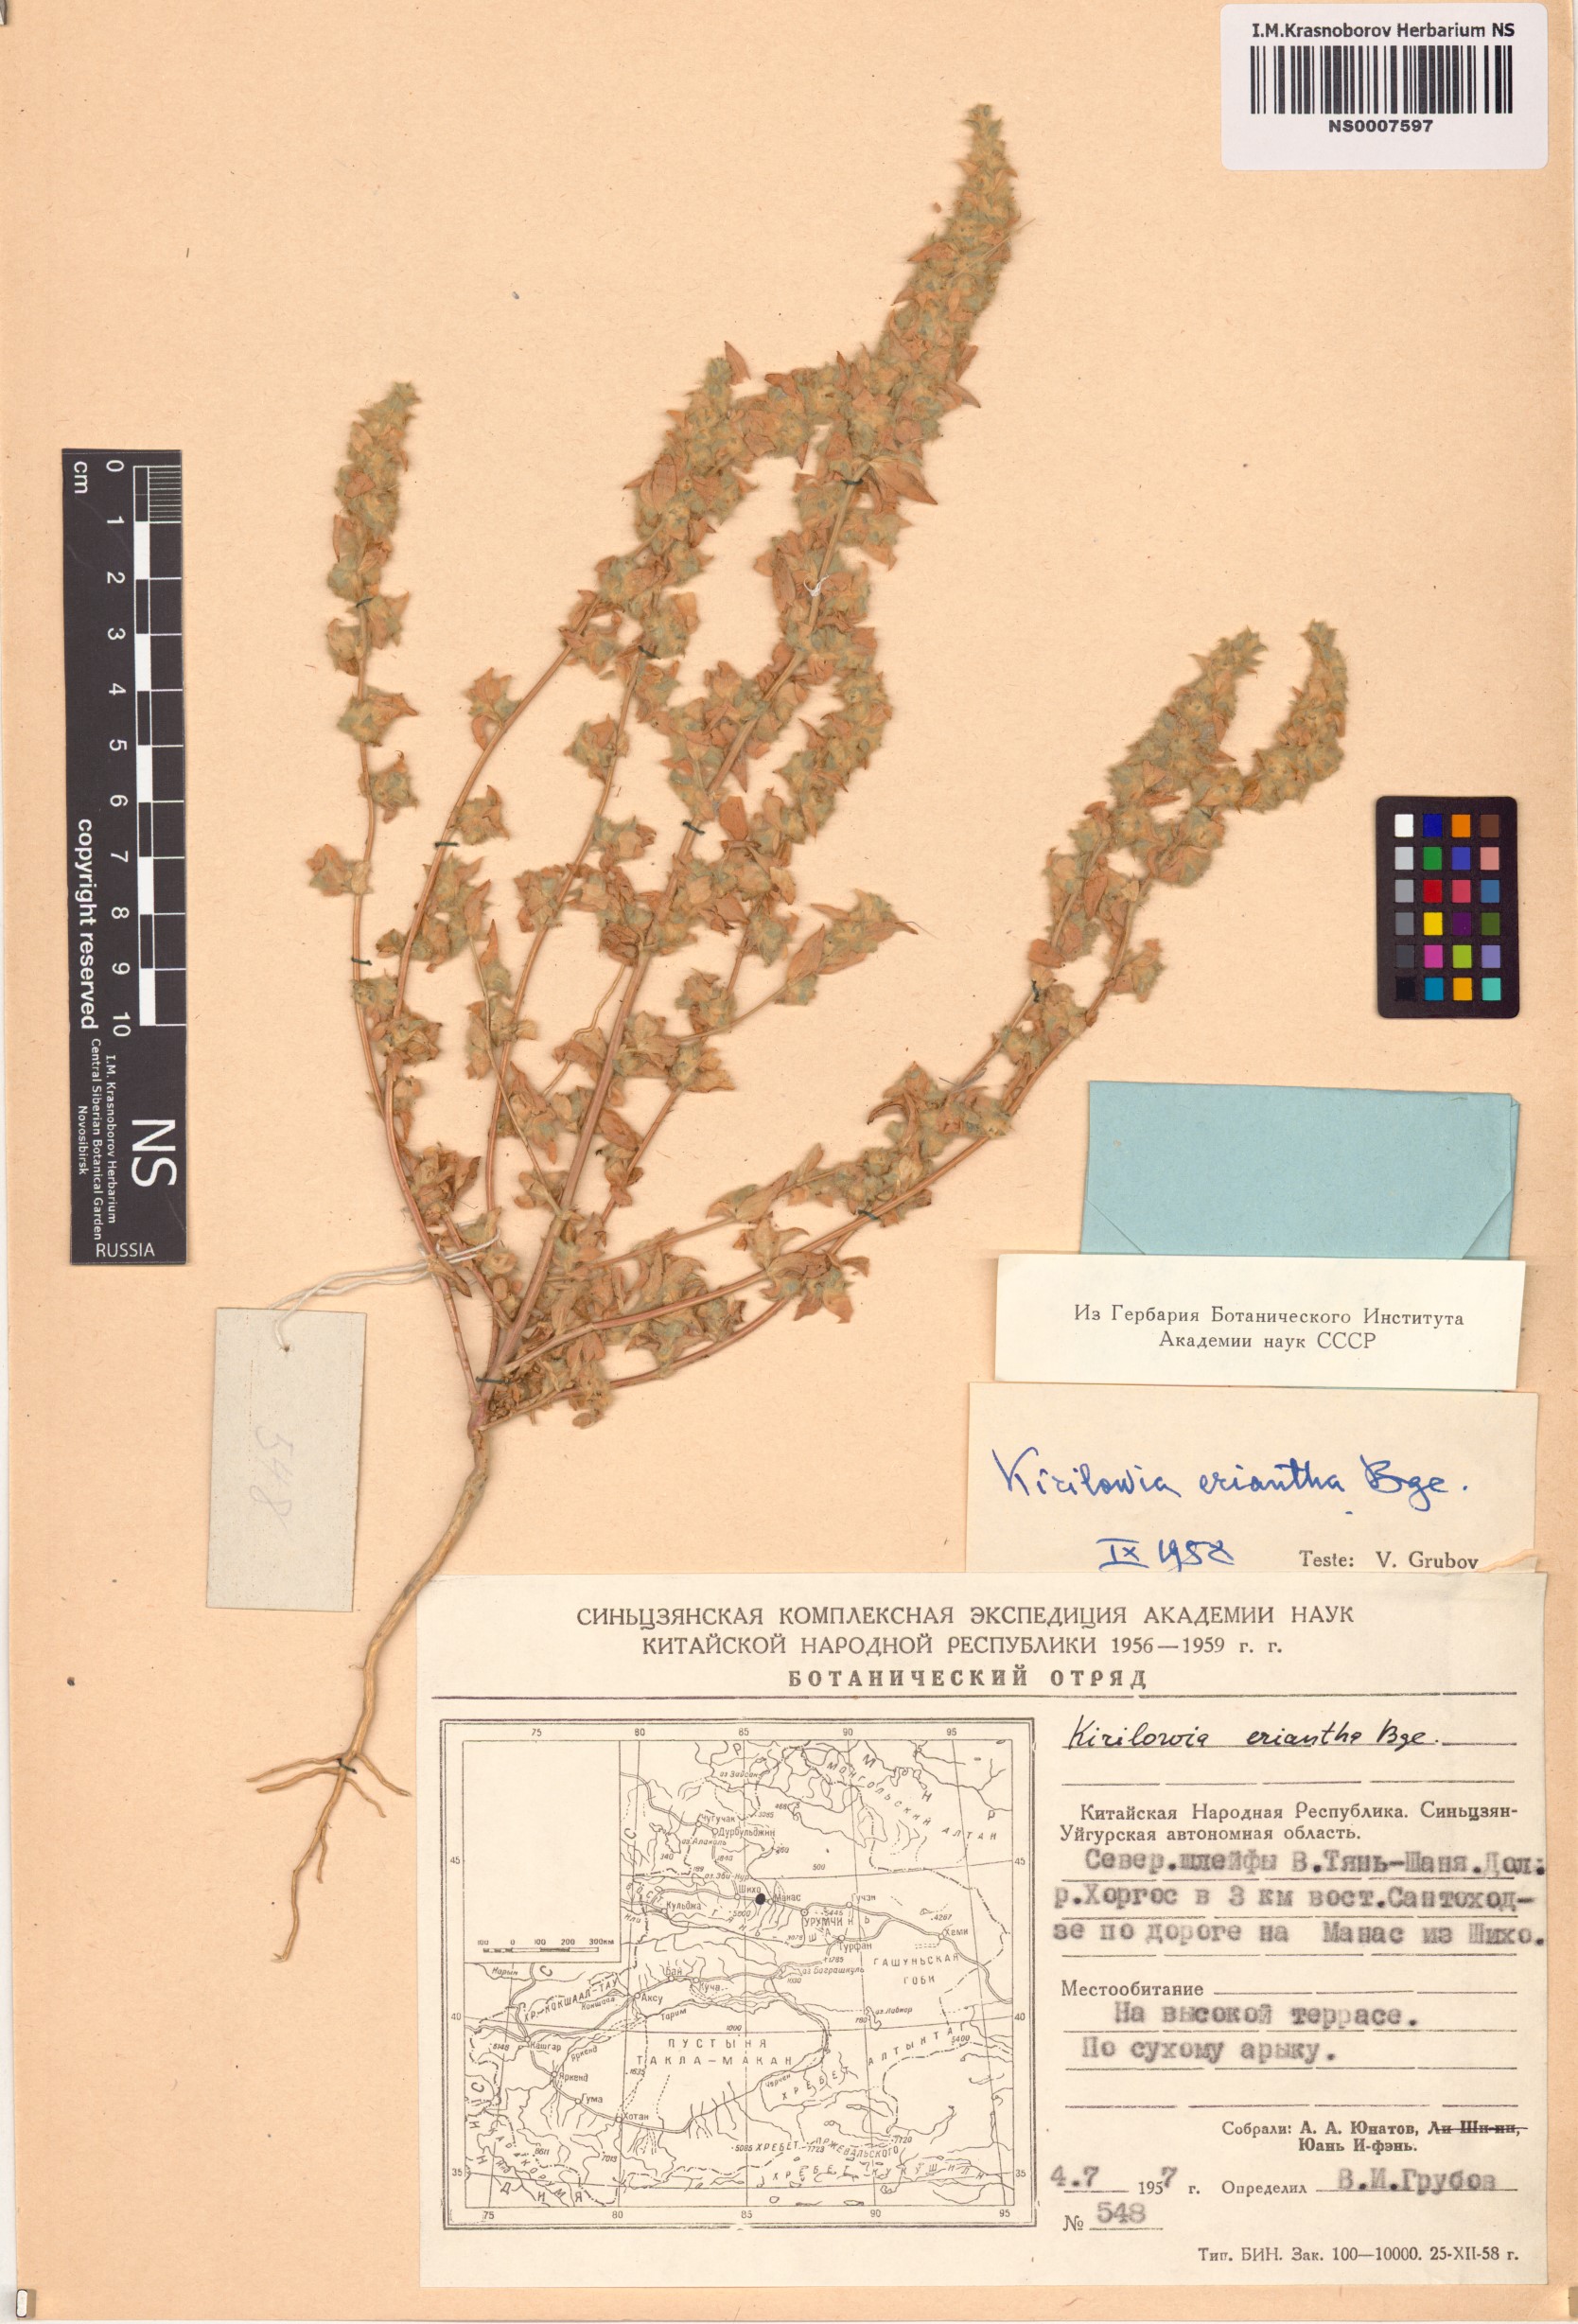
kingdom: Plantae
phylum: Tracheophyta
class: Magnoliopsida
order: Caryophyllales
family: Amaranthaceae
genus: Bassia
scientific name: Bassia lasiantha
